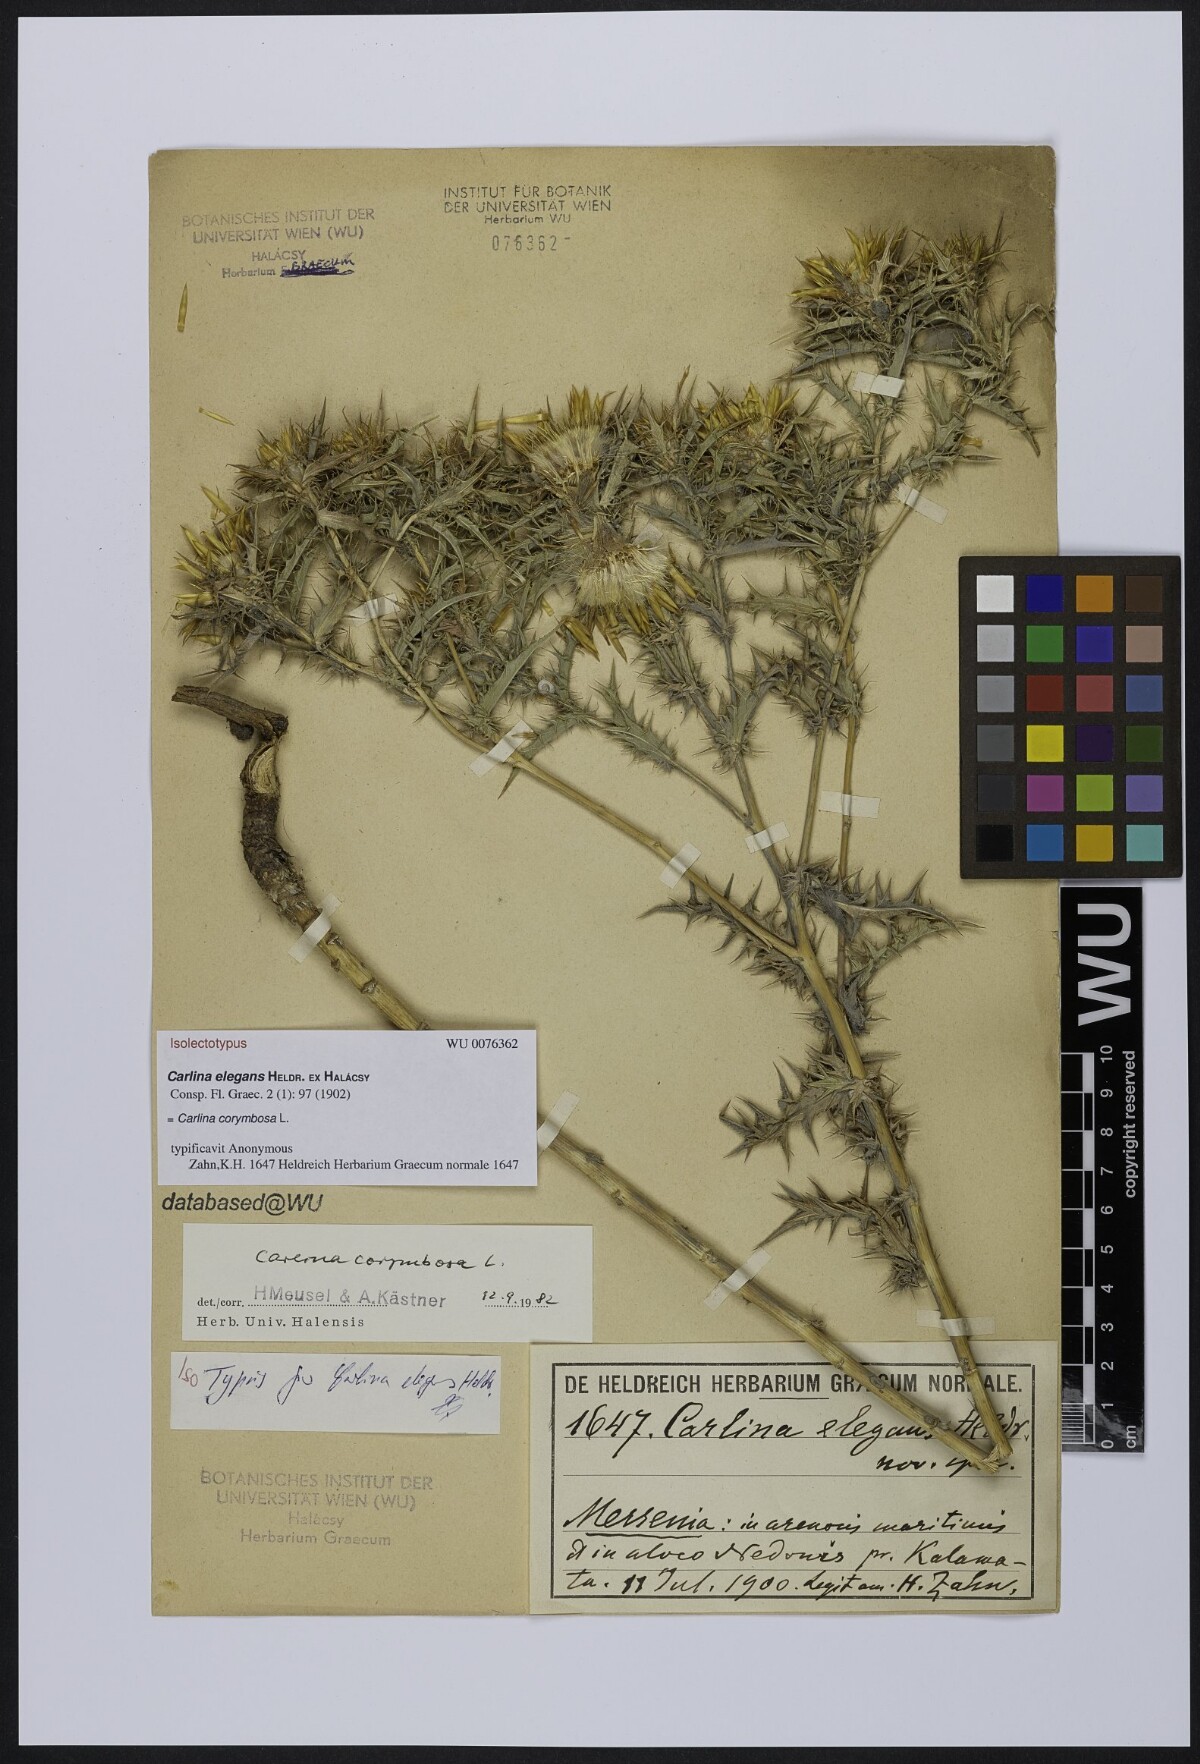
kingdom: Plantae
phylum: Tracheophyta
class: Magnoliopsida
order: Asterales
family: Asteraceae
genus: Carlina
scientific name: Carlina corymbosa
